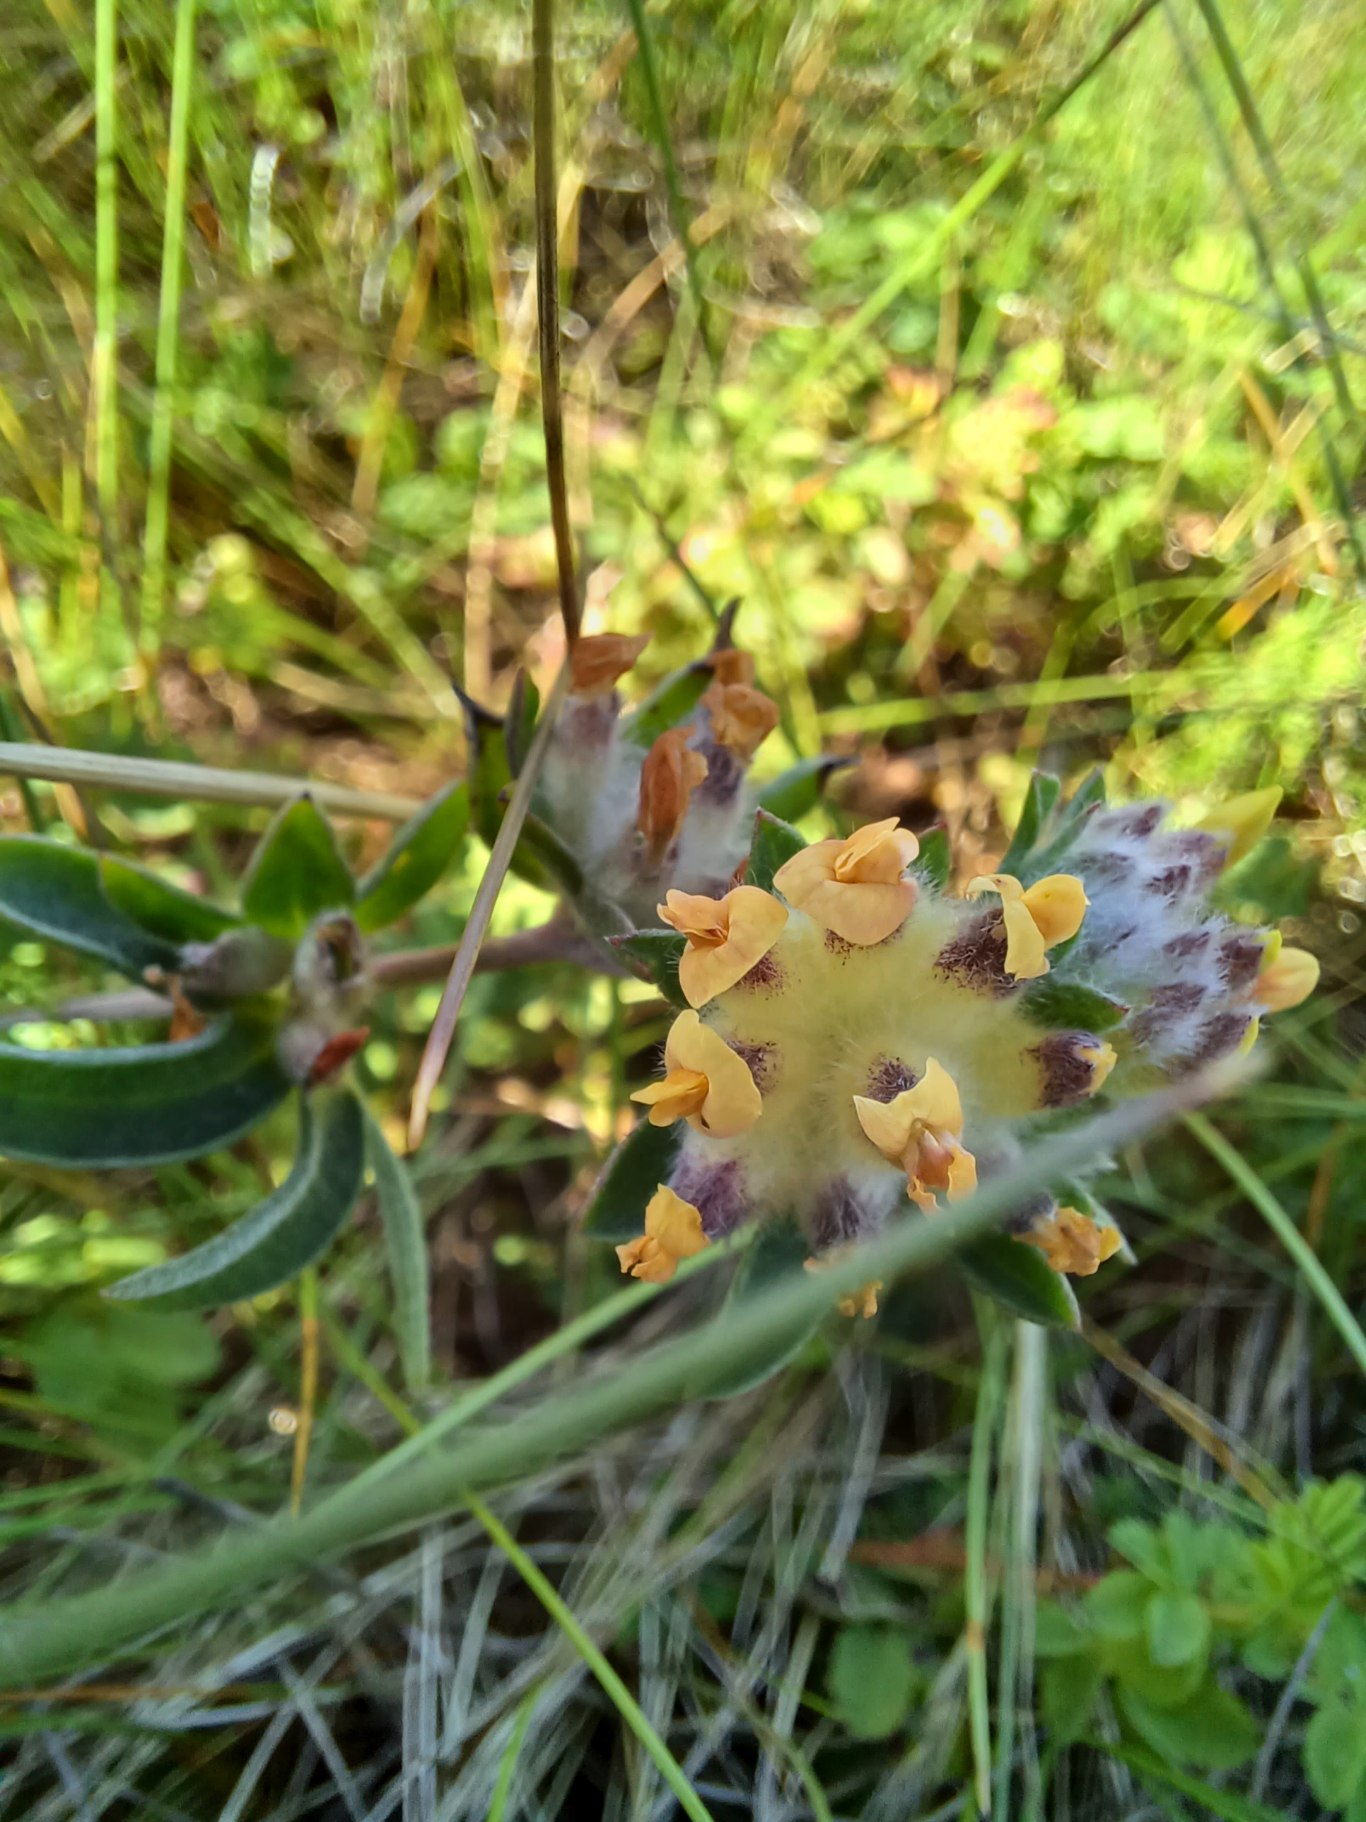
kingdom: Plantae
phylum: Tracheophyta
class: Magnoliopsida
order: Fabales
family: Fabaceae
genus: Anthyllis
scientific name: Anthyllis vulneraria
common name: Rundbælg
